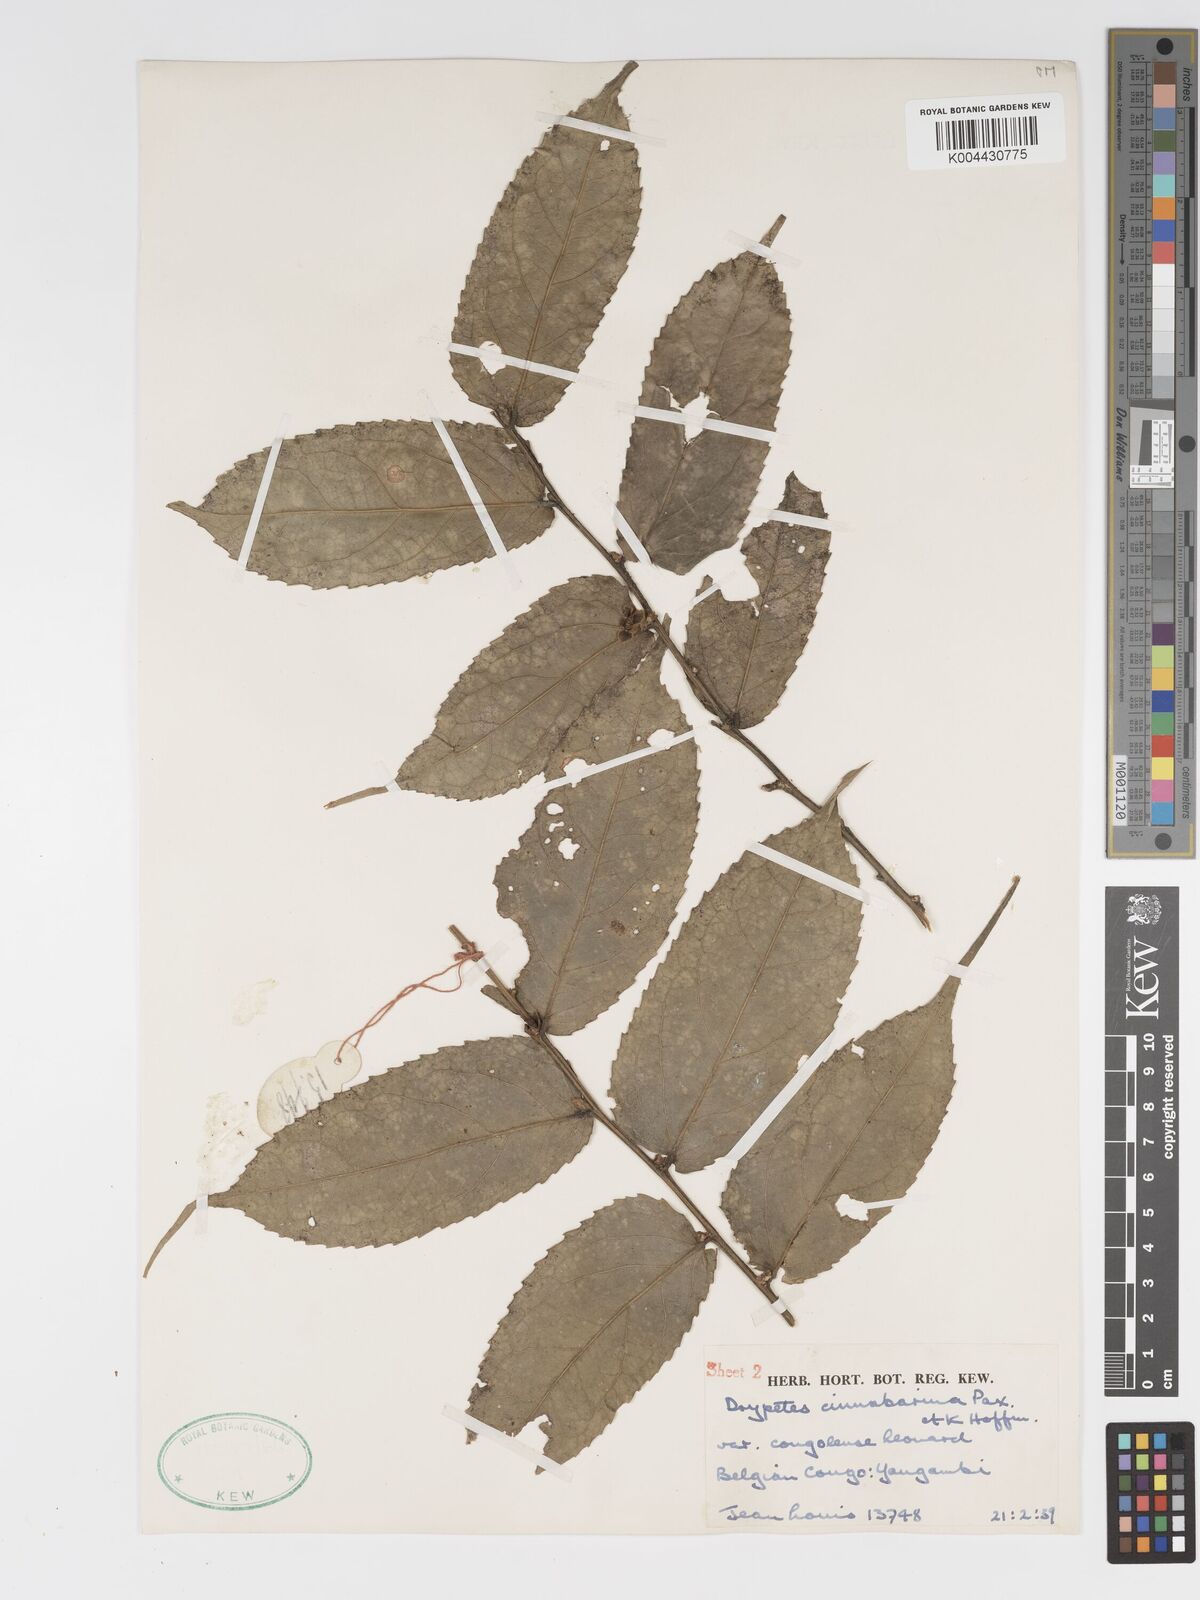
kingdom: Plantae
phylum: Tracheophyta
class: Magnoliopsida
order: Malpighiales
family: Putranjivaceae
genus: Drypetes
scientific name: Drypetes cinnabarina
